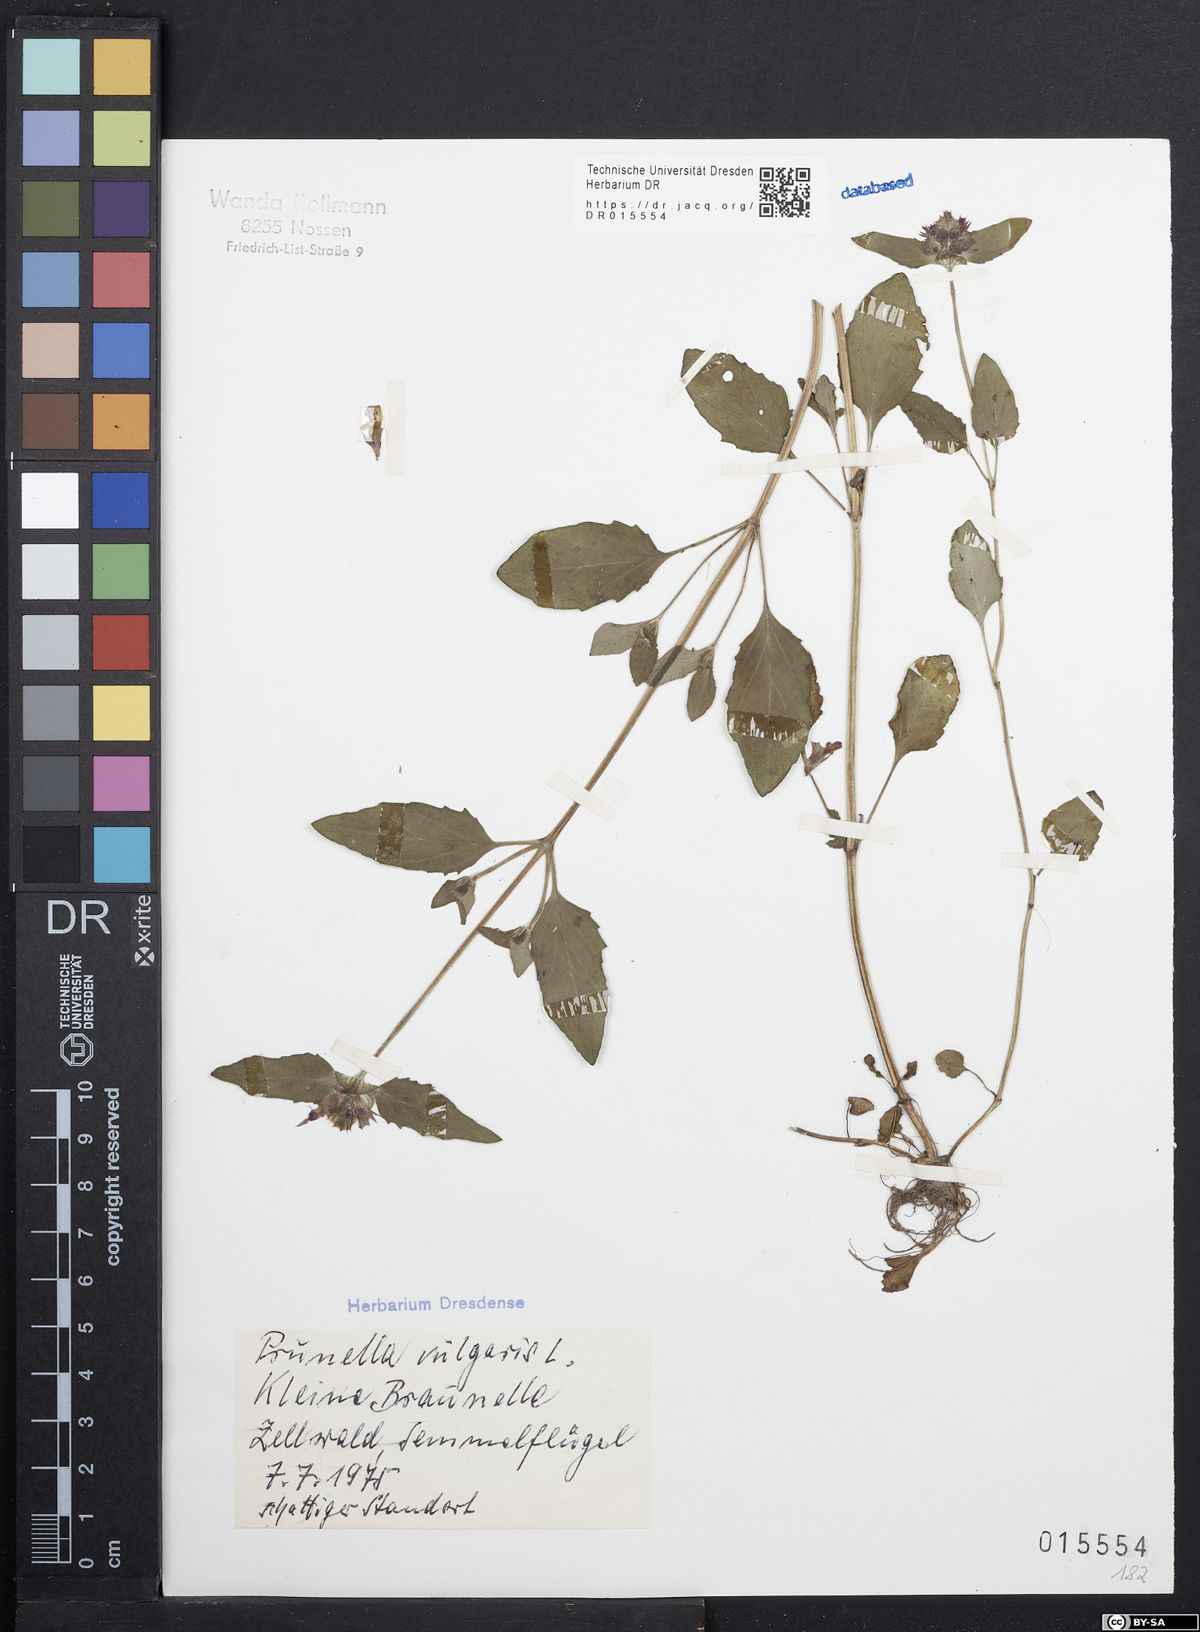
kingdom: Plantae
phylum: Tracheophyta
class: Magnoliopsida
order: Lamiales
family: Lamiaceae
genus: Prunella
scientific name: Prunella vulgaris
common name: Heal-all
